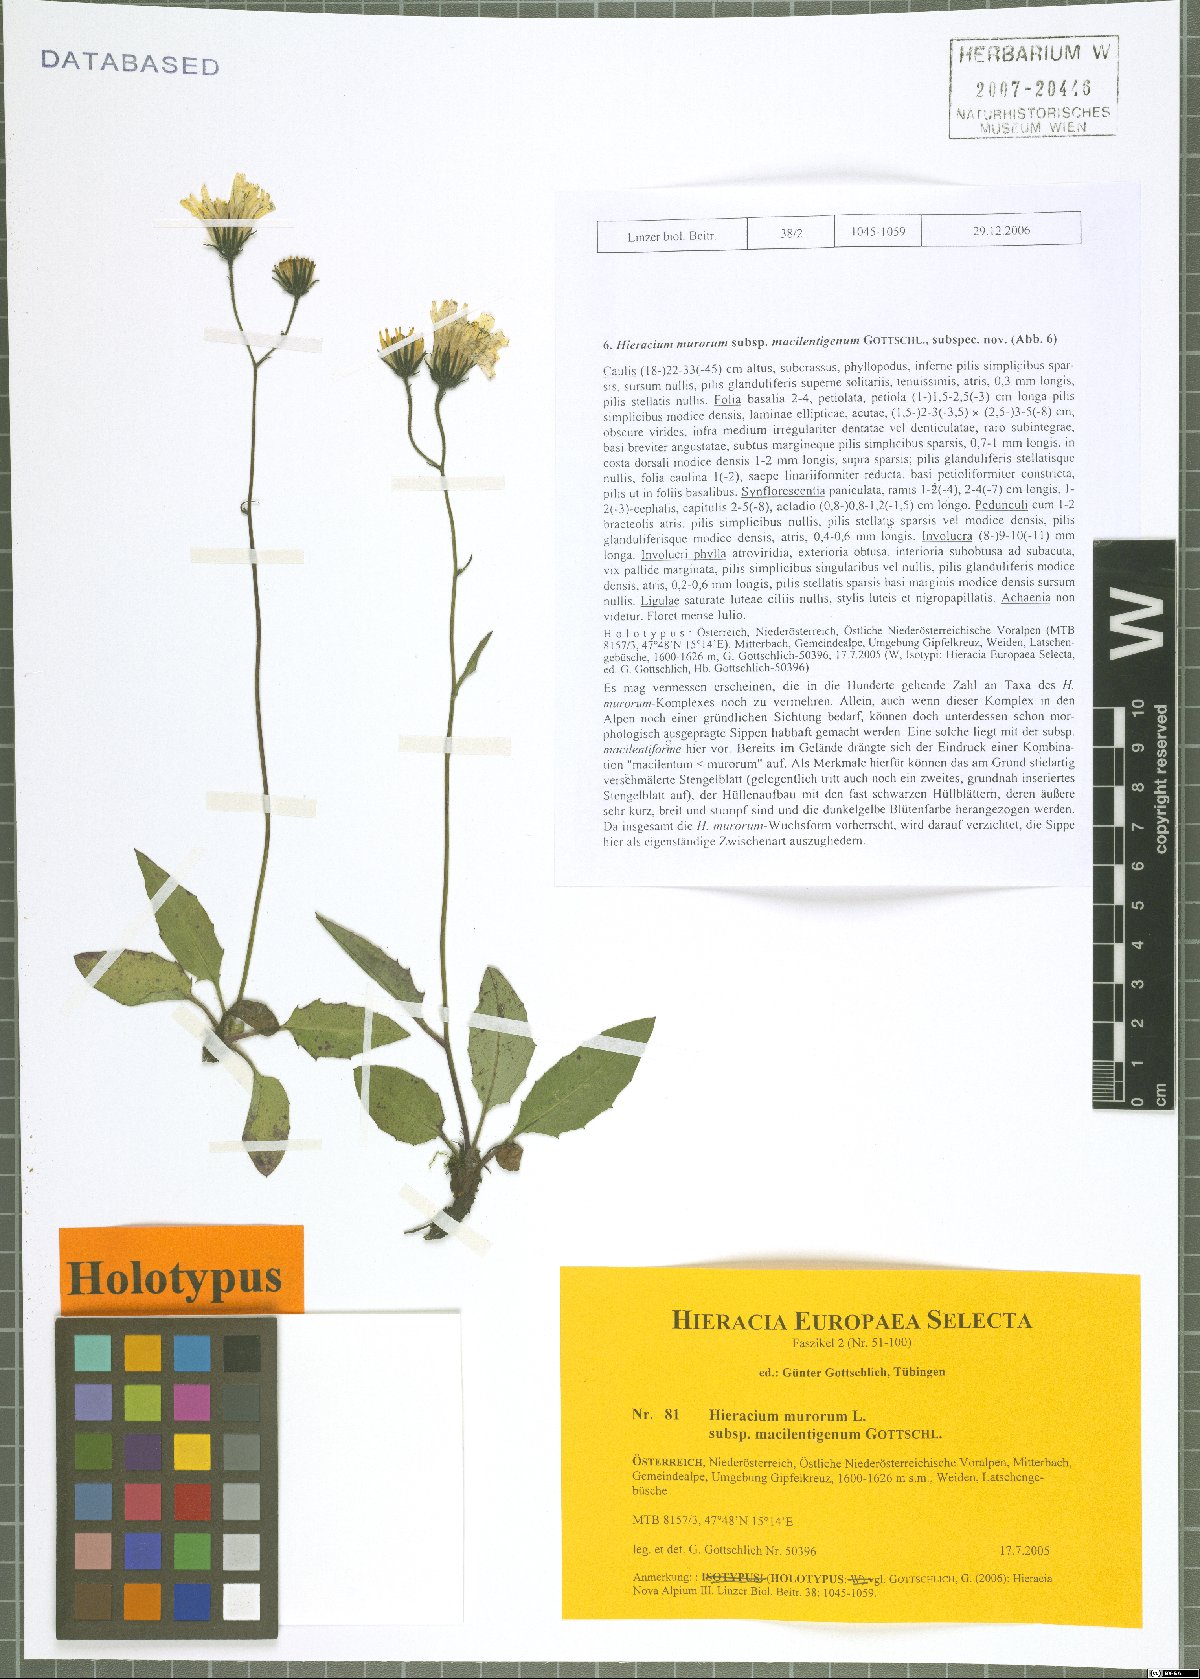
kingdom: Plantae
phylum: Tracheophyta
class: Magnoliopsida
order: Asterales
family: Asteraceae
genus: Hieracium
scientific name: Hieracium murorum
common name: Wall hawkweed
